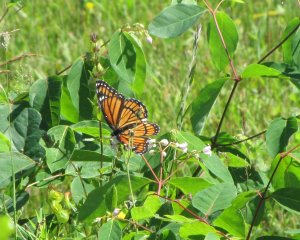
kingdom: Animalia
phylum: Arthropoda
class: Insecta
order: Lepidoptera
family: Nymphalidae
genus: Limenitis
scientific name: Limenitis archippus
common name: Viceroy
